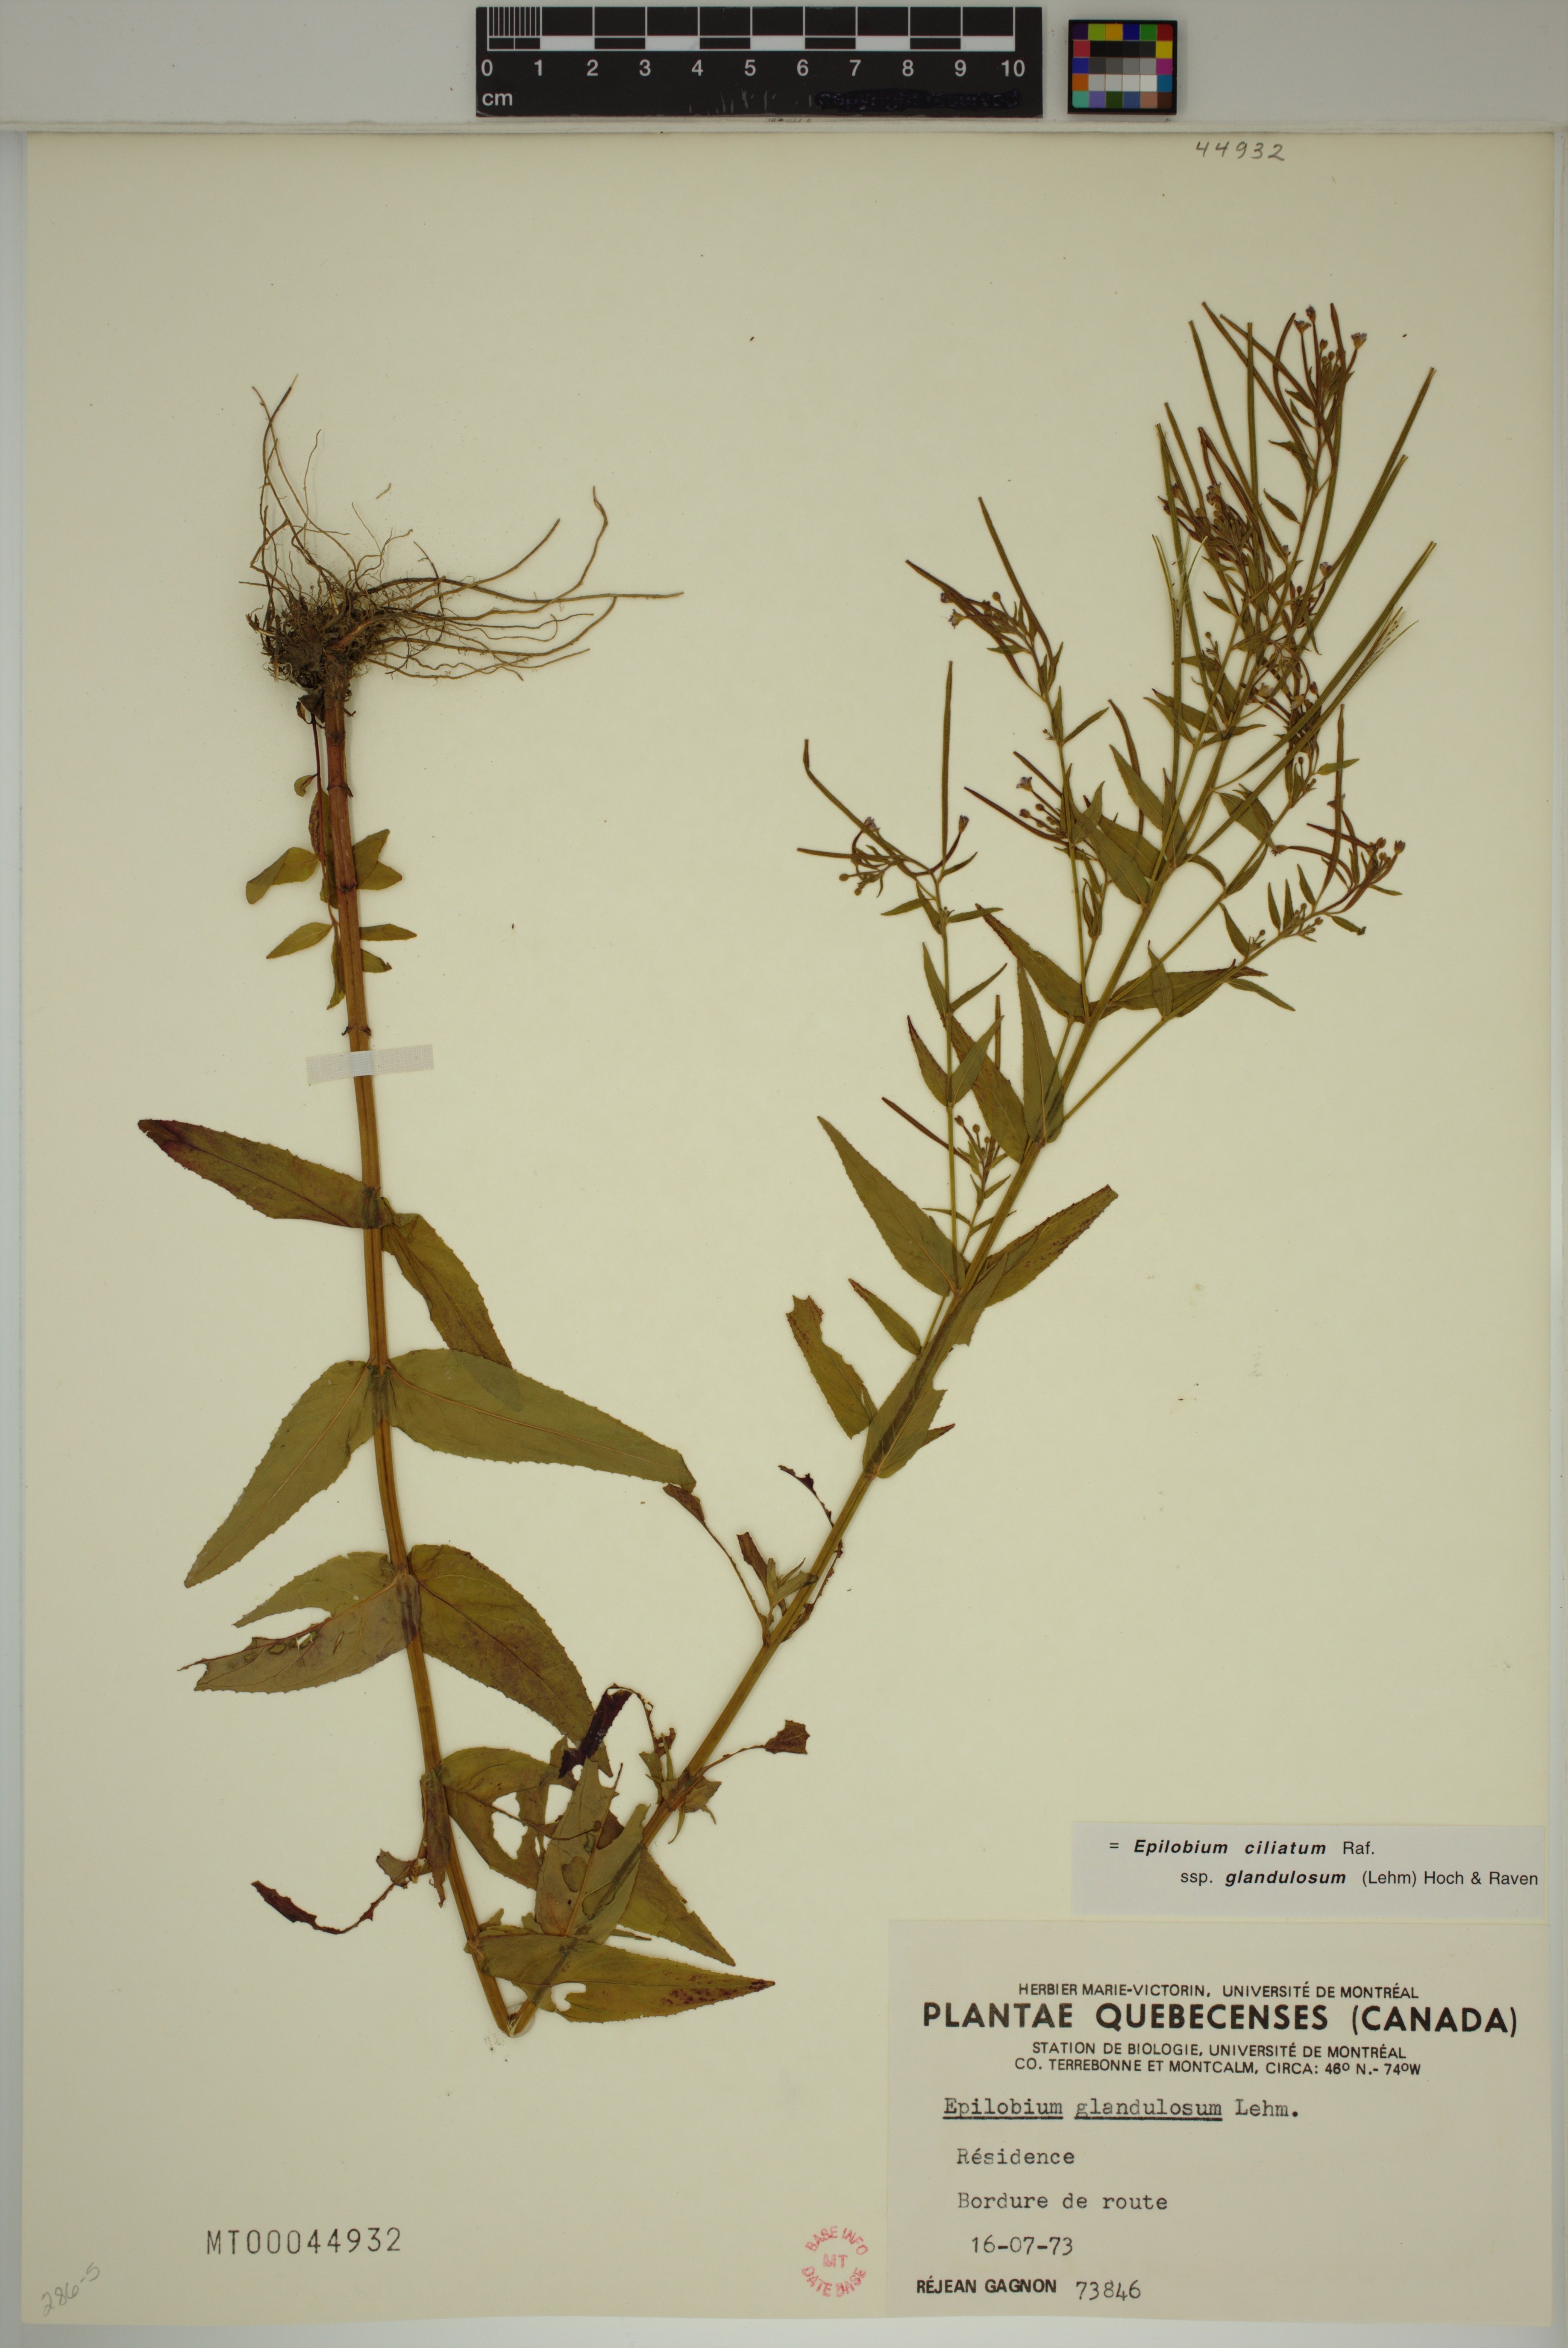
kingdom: Plantae
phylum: Tracheophyta
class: Magnoliopsida
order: Myrtales
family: Onagraceae
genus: Epilobium
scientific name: Epilobium ciliatum
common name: American willowherb
